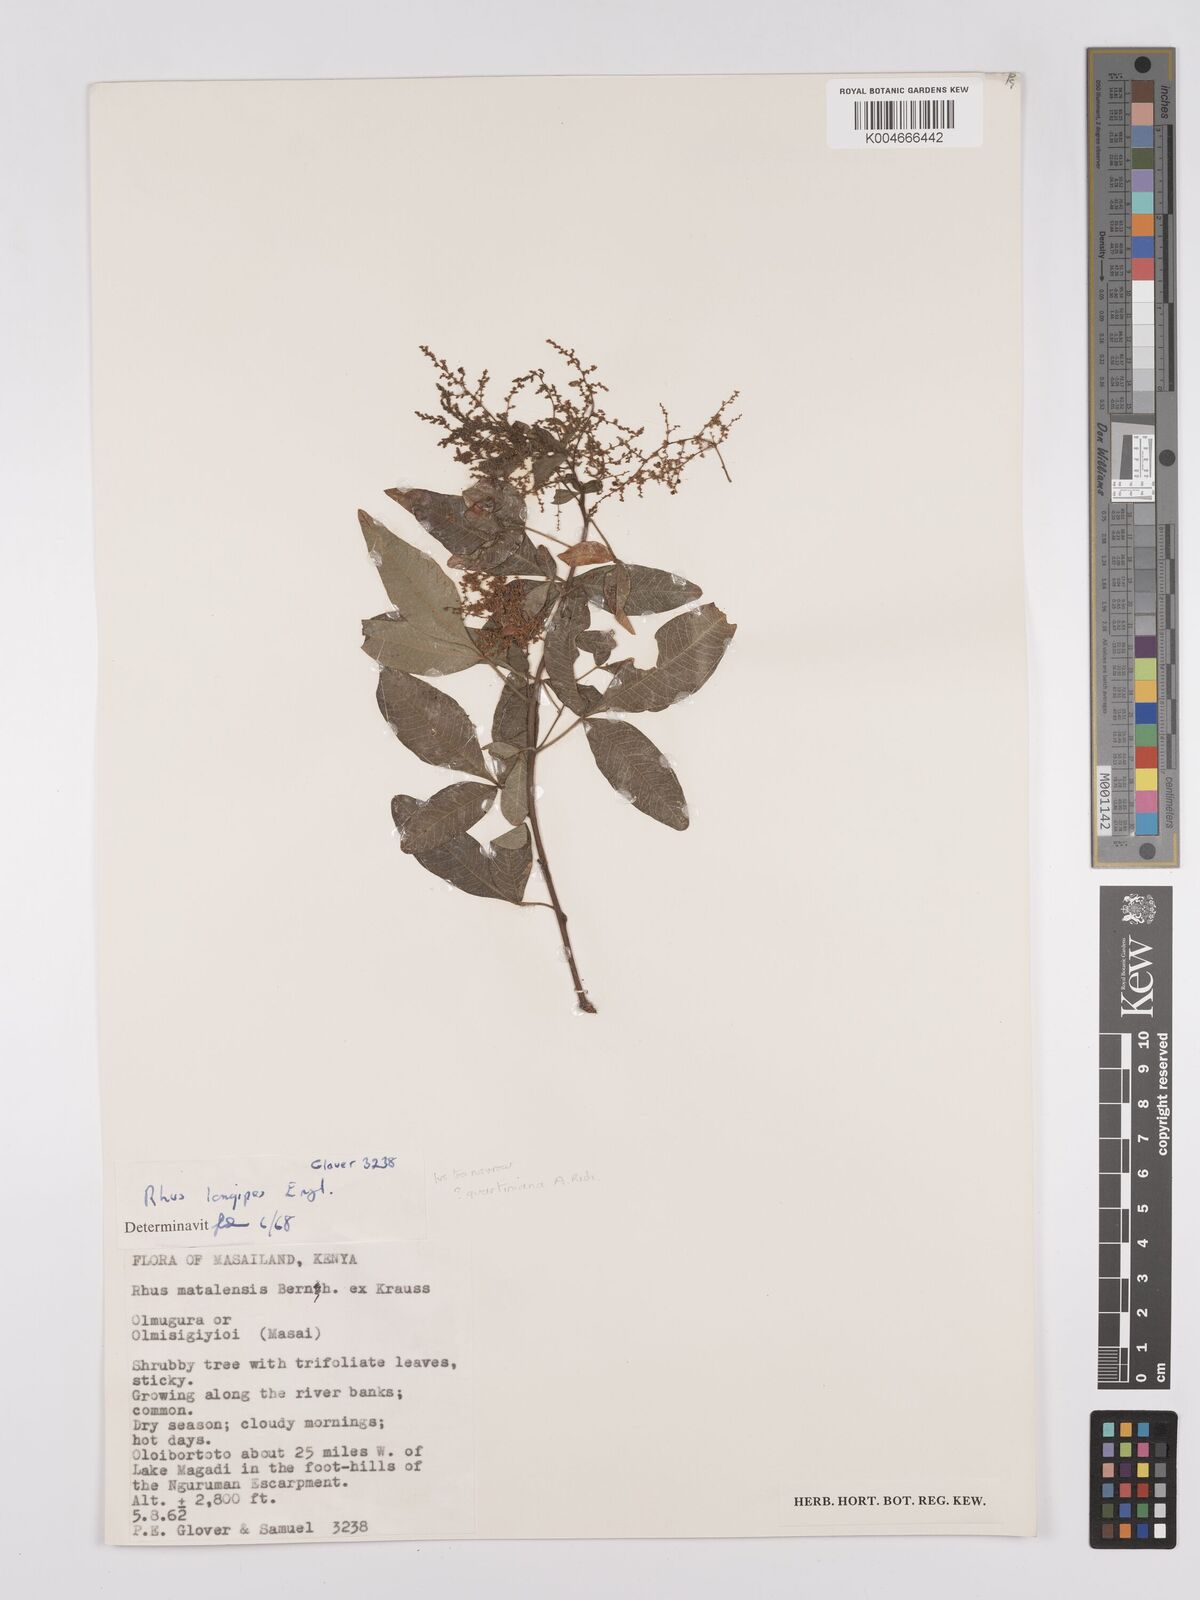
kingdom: Plantae
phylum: Tracheophyta
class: Magnoliopsida
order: Sapindales
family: Anacardiaceae
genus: Searsia
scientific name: Searsia quartiniana
